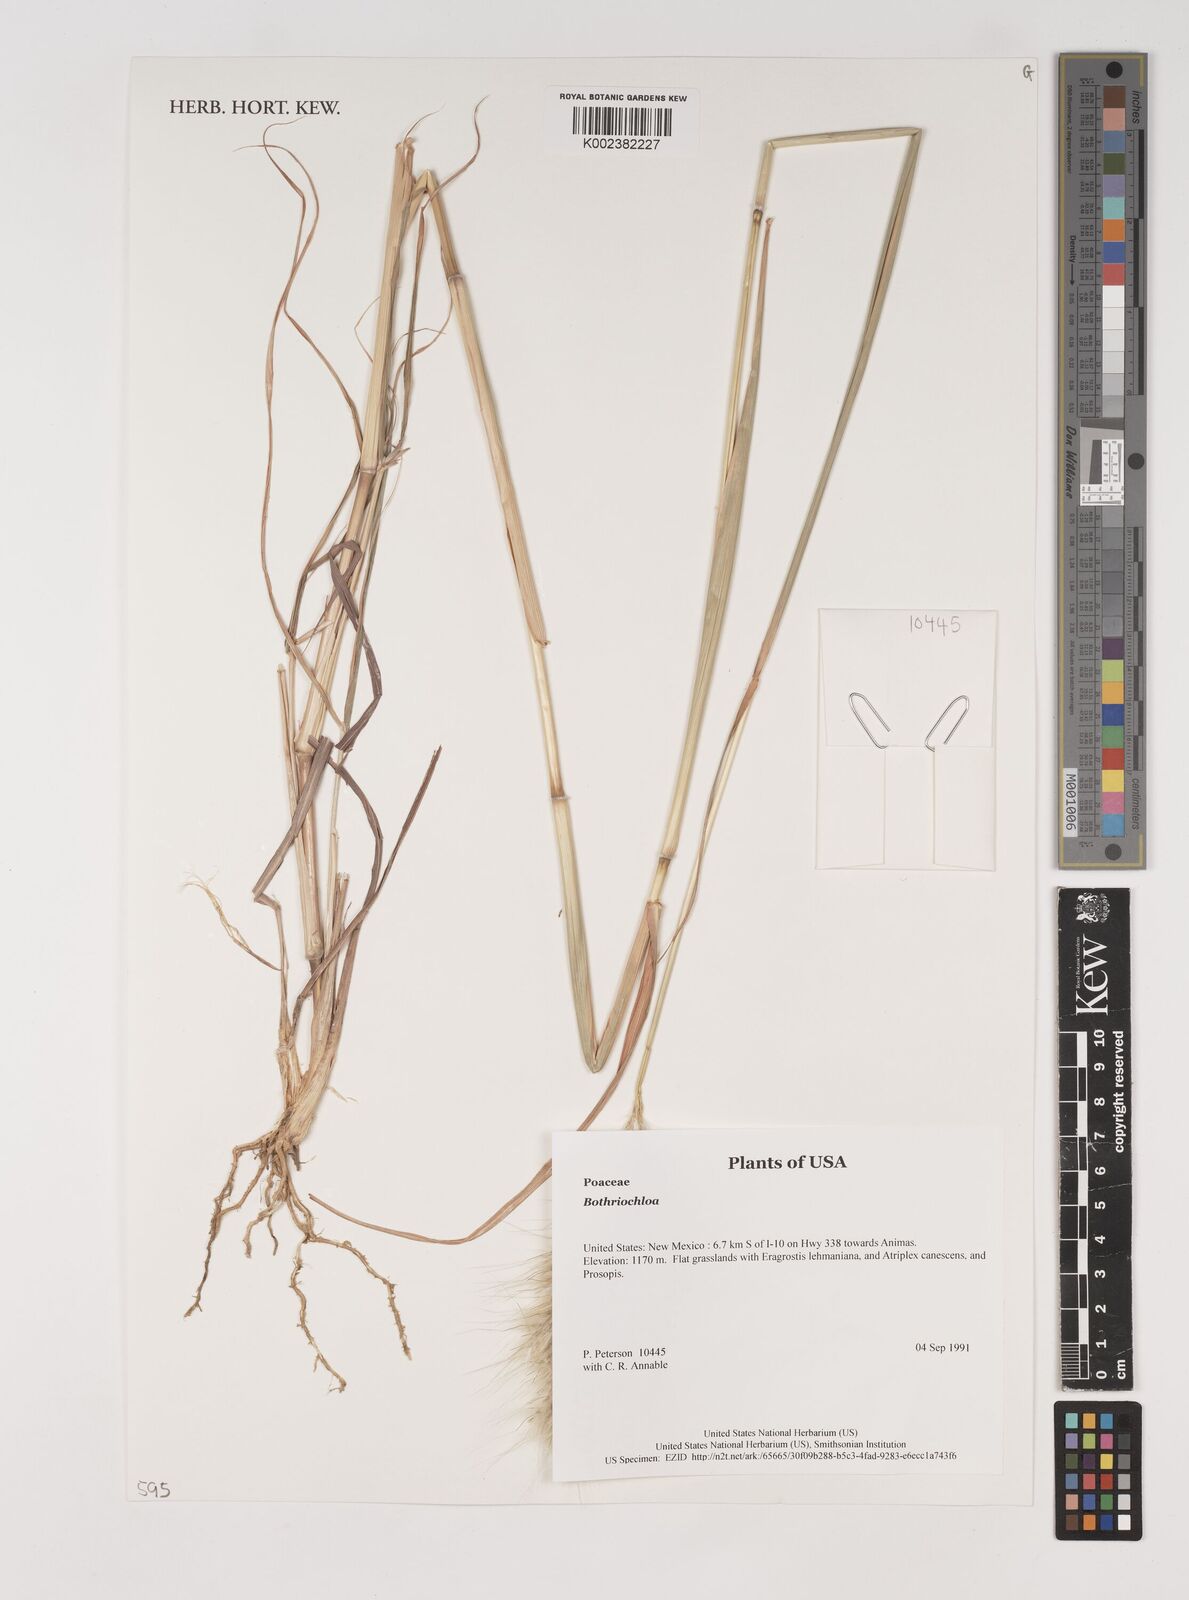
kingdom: Plantae
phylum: Tracheophyta
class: Liliopsida
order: Poales
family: Poaceae
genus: Bothriochloa
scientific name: Bothriochloa
